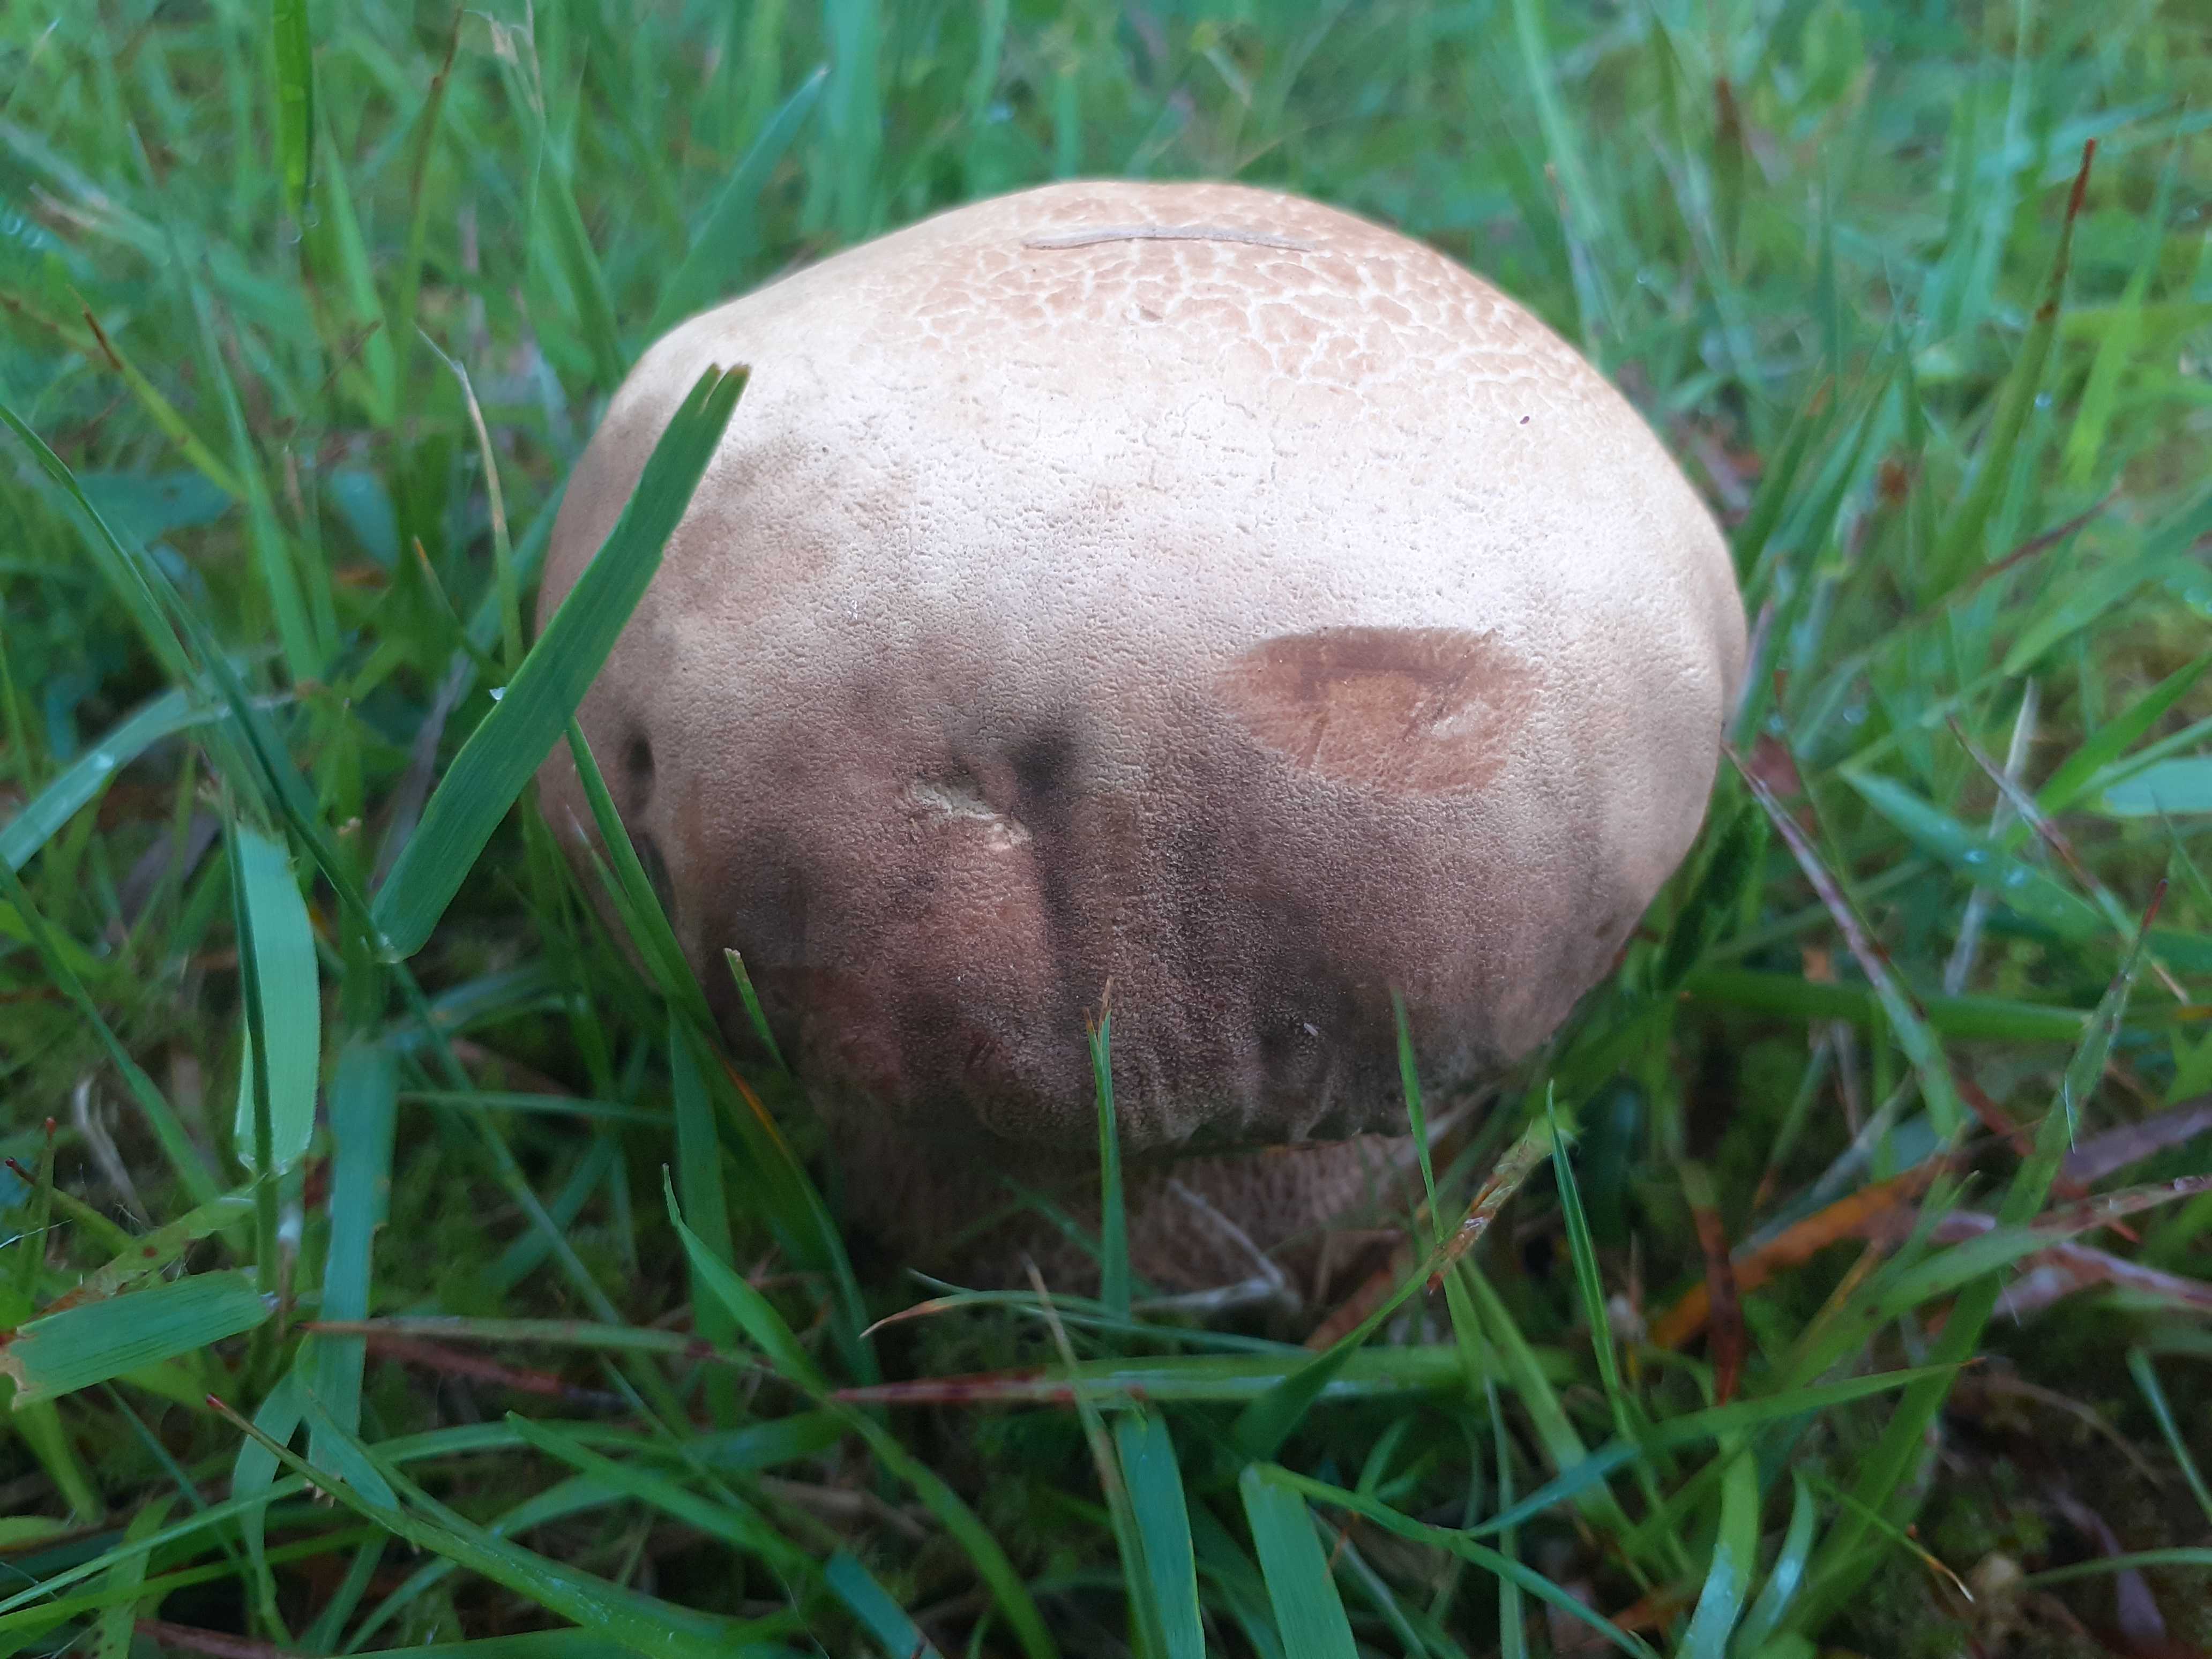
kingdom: Fungi
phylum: Basidiomycota
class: Agaricomycetes
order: Boletales
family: Boletaceae
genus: Boletus
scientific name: Boletus reticulatus
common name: sommer-rørhat
